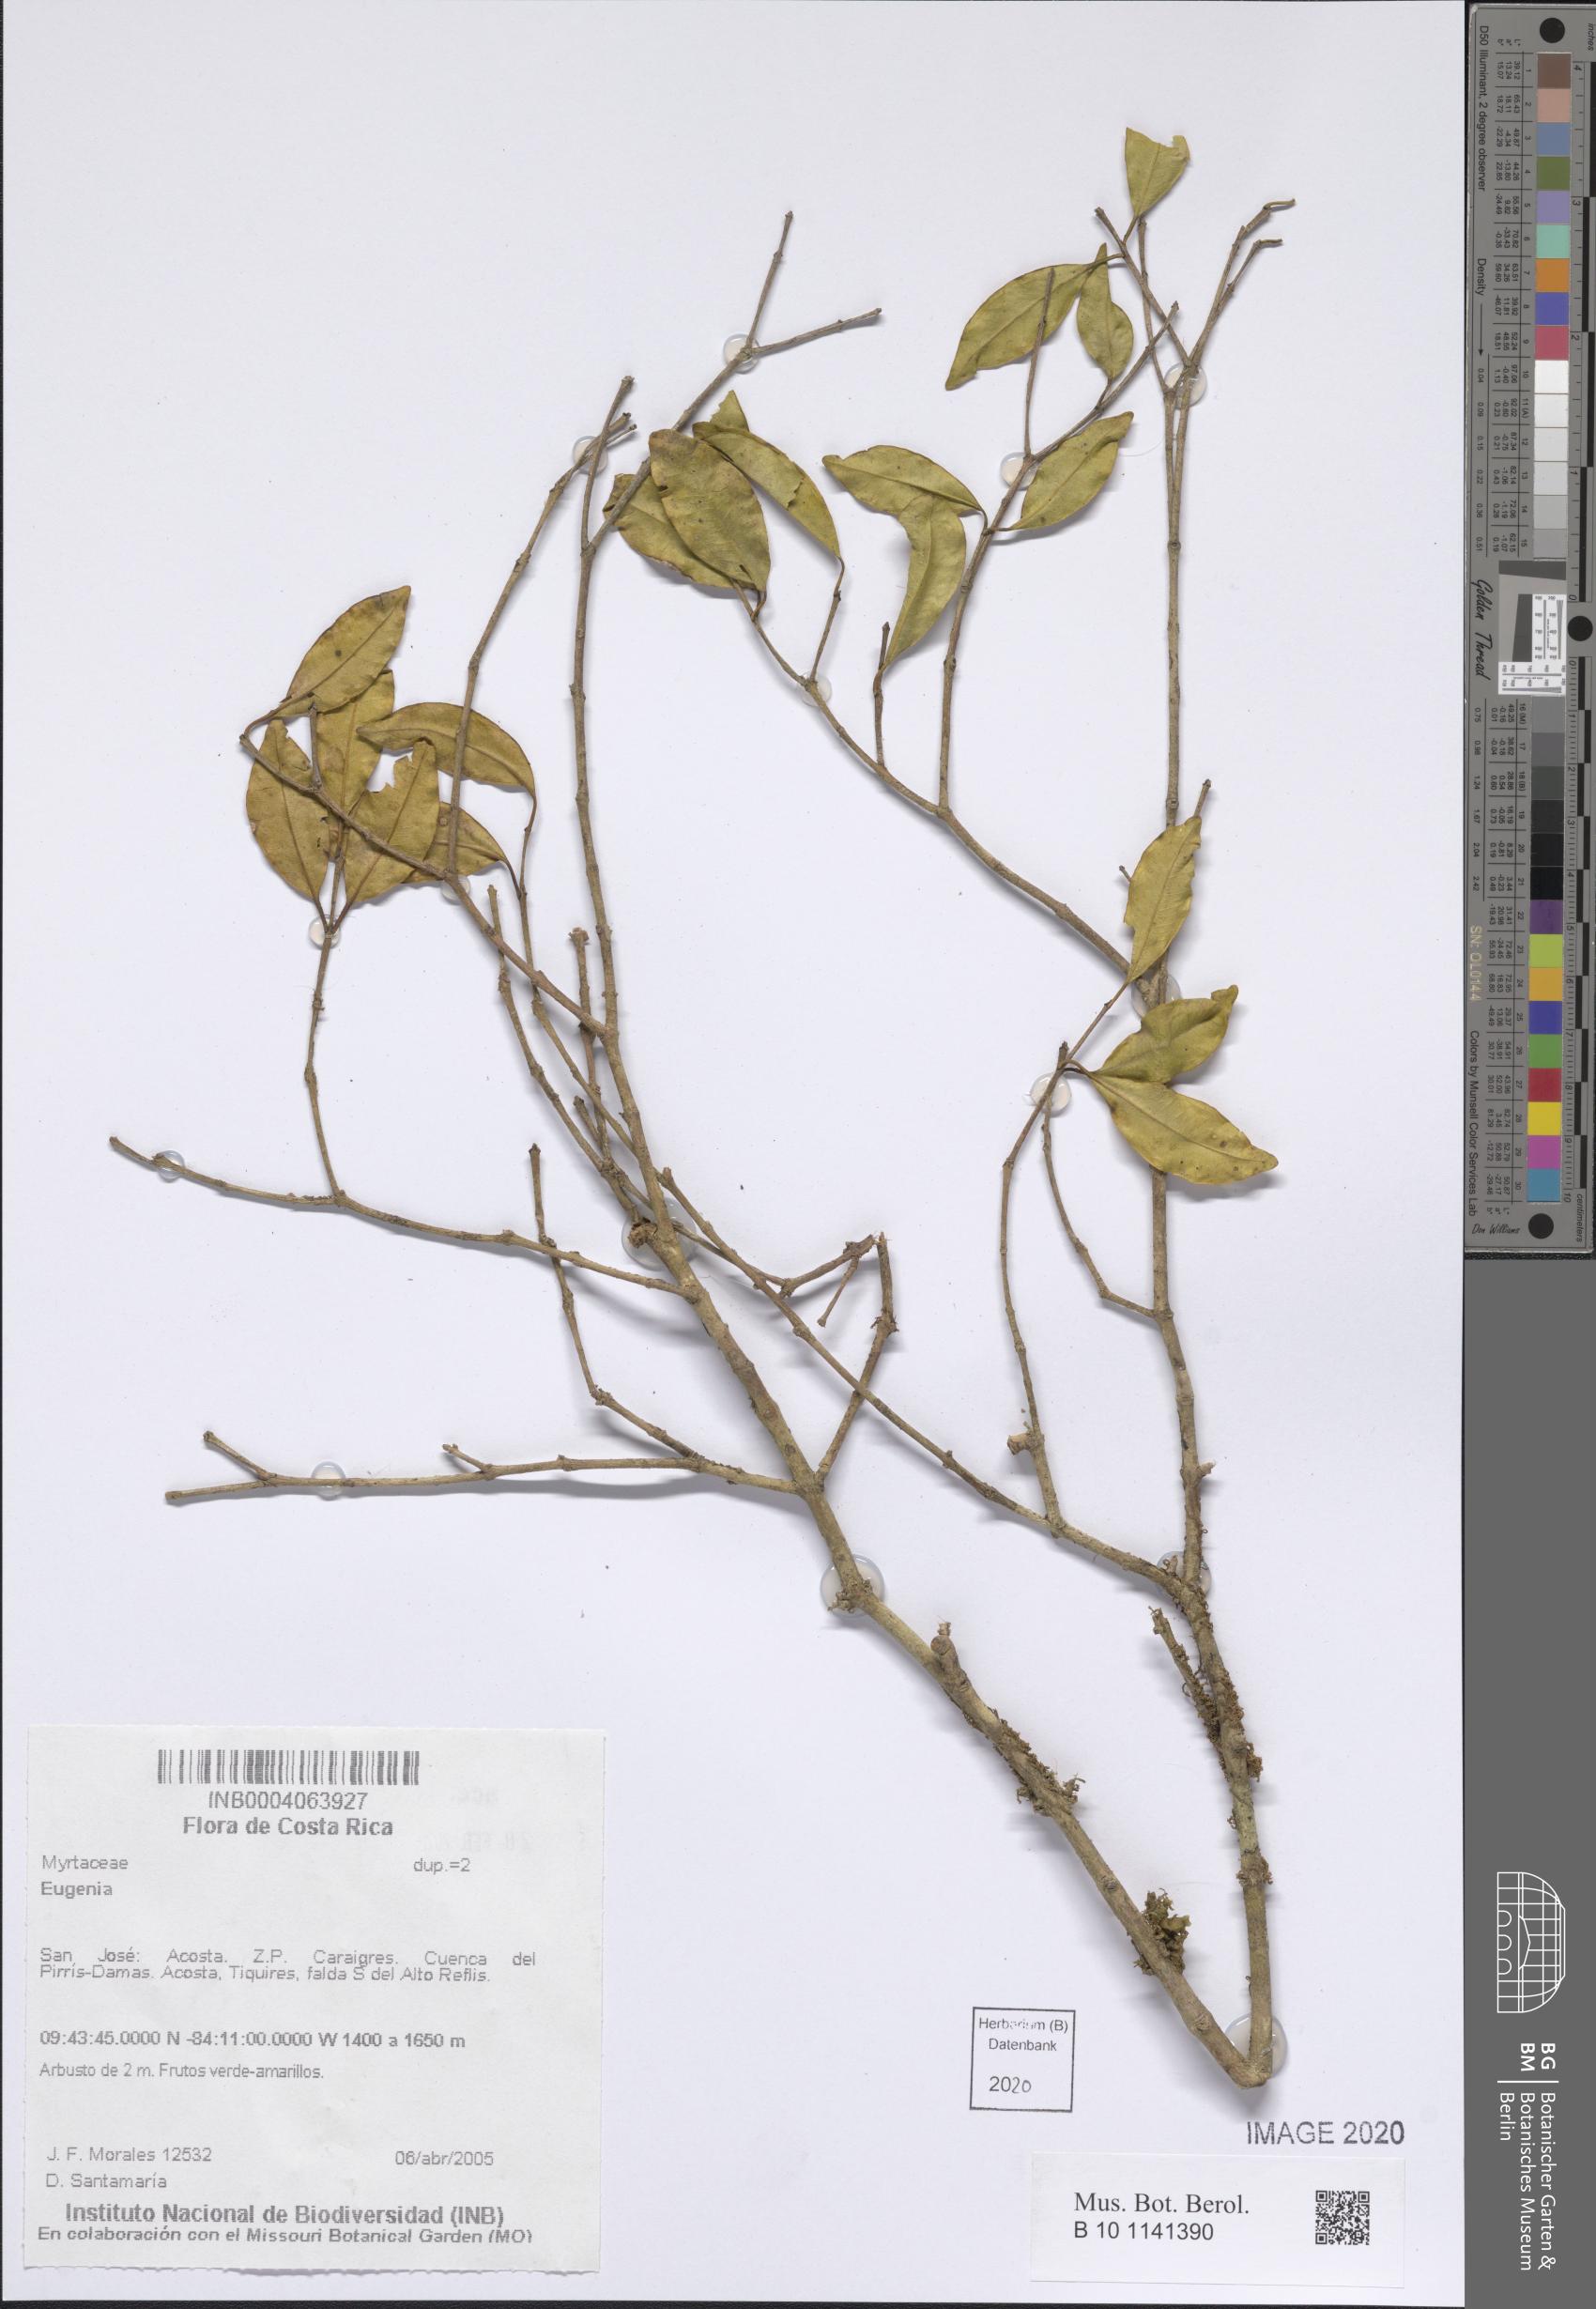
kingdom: Plantae
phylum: Tracheophyta
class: Magnoliopsida
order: Myrtales
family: Myrtaceae
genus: Eugenia
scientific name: Eugenia
